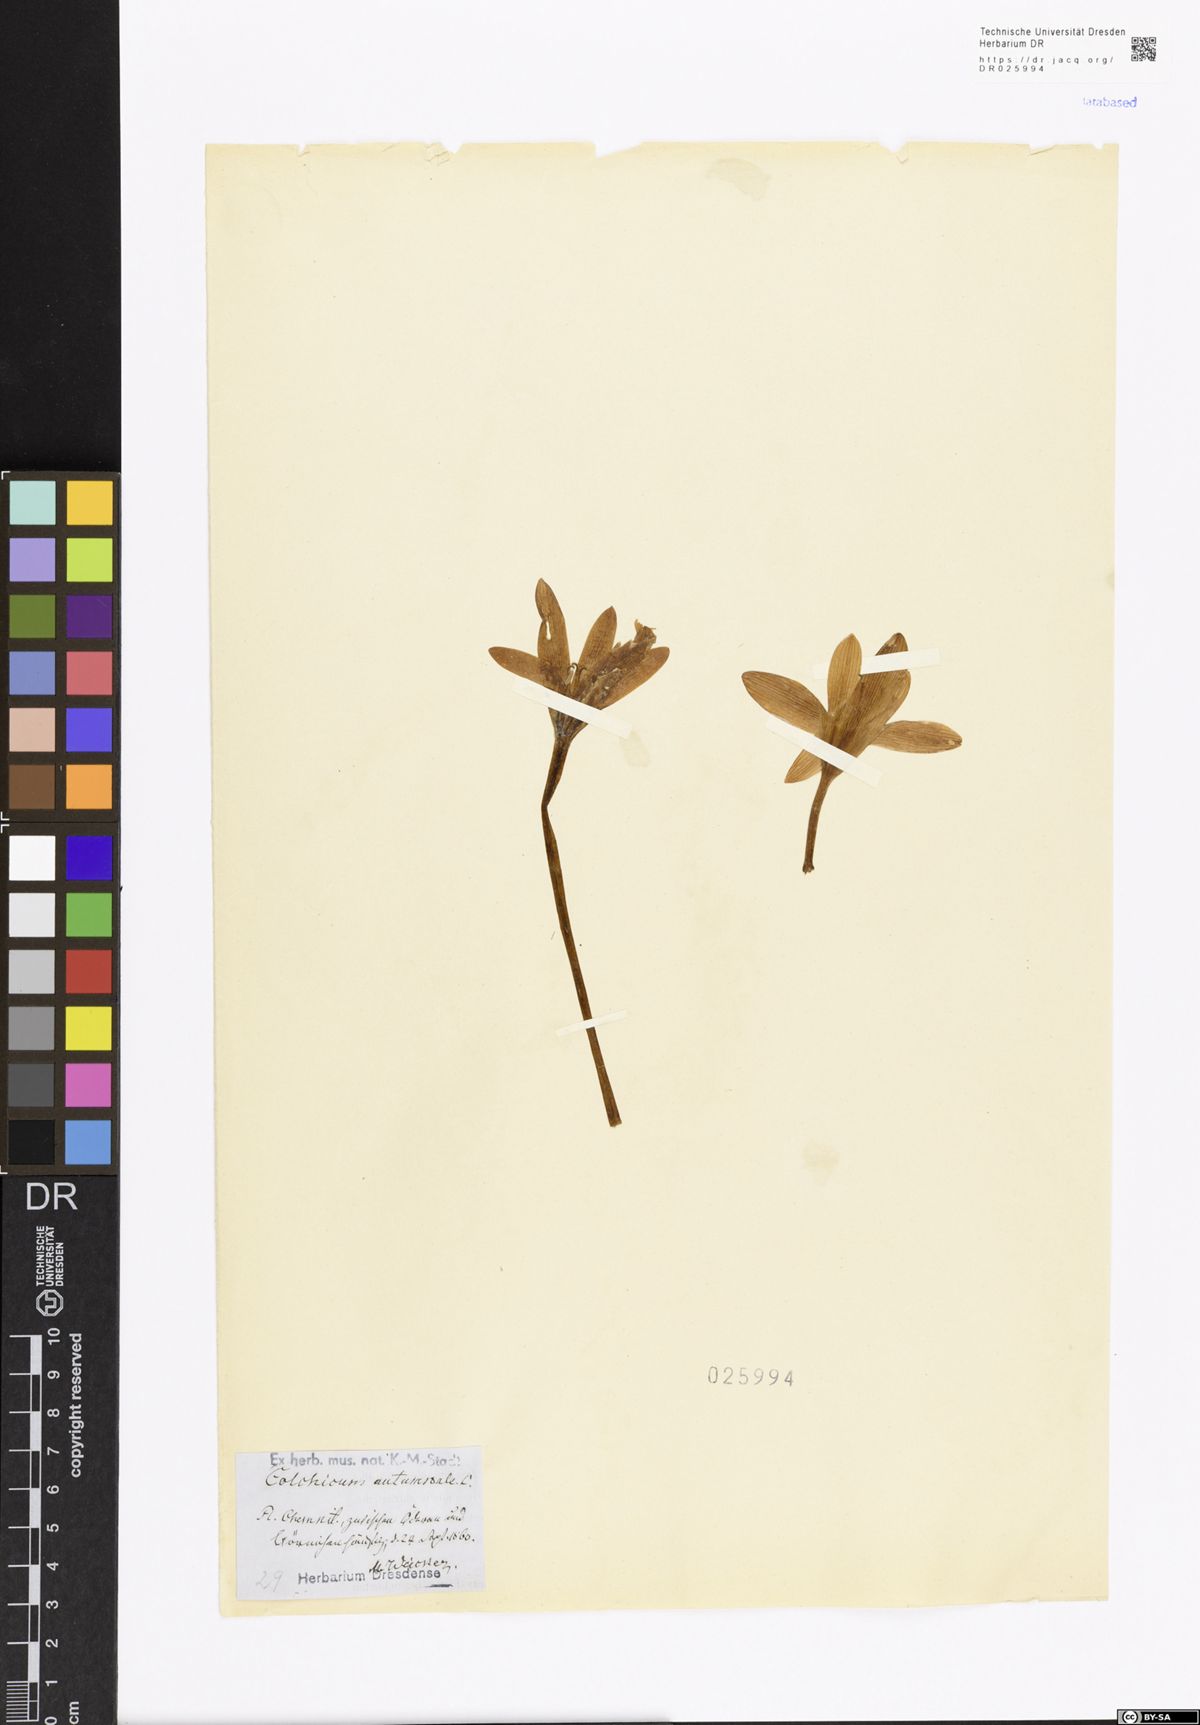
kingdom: Plantae
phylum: Tracheophyta
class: Liliopsida
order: Liliales
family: Colchicaceae
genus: Colchicum
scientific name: Colchicum autumnale
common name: Autumn crocus
